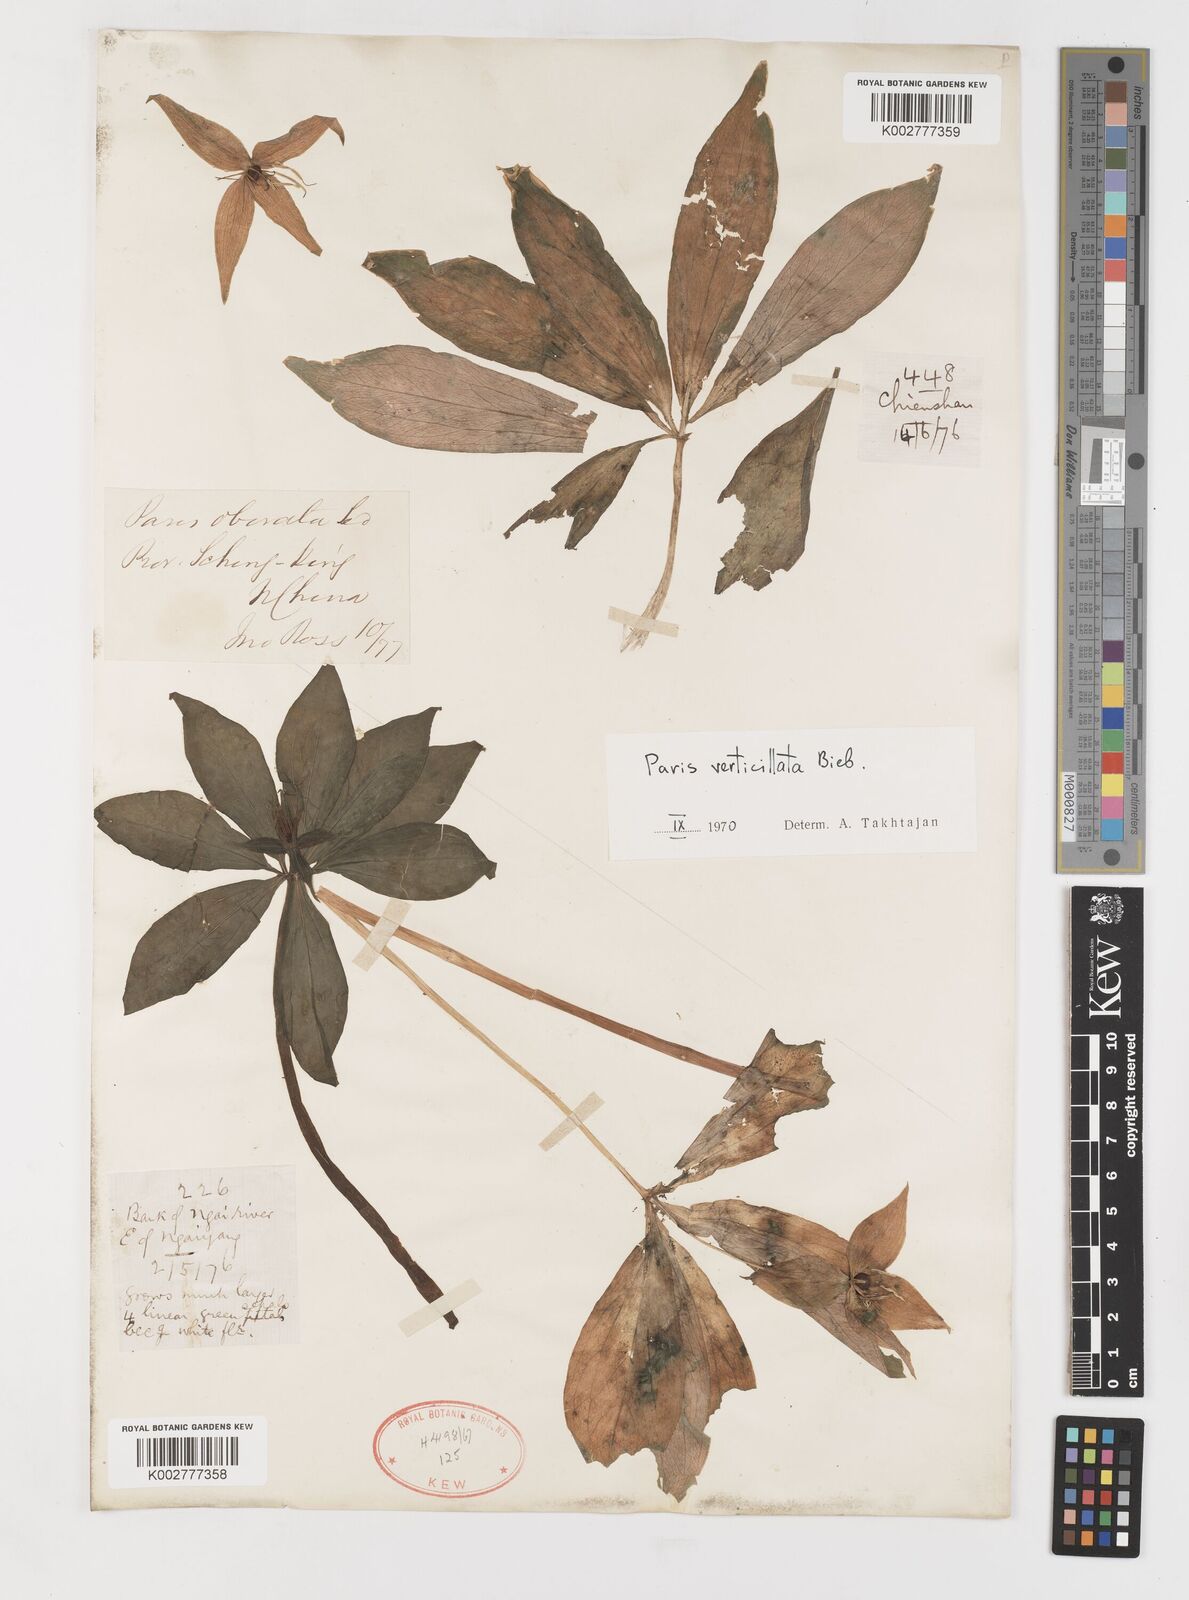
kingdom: Plantae
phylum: Tracheophyta
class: Liliopsida
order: Liliales
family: Melanthiaceae
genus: Paris
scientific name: Paris verticillata
